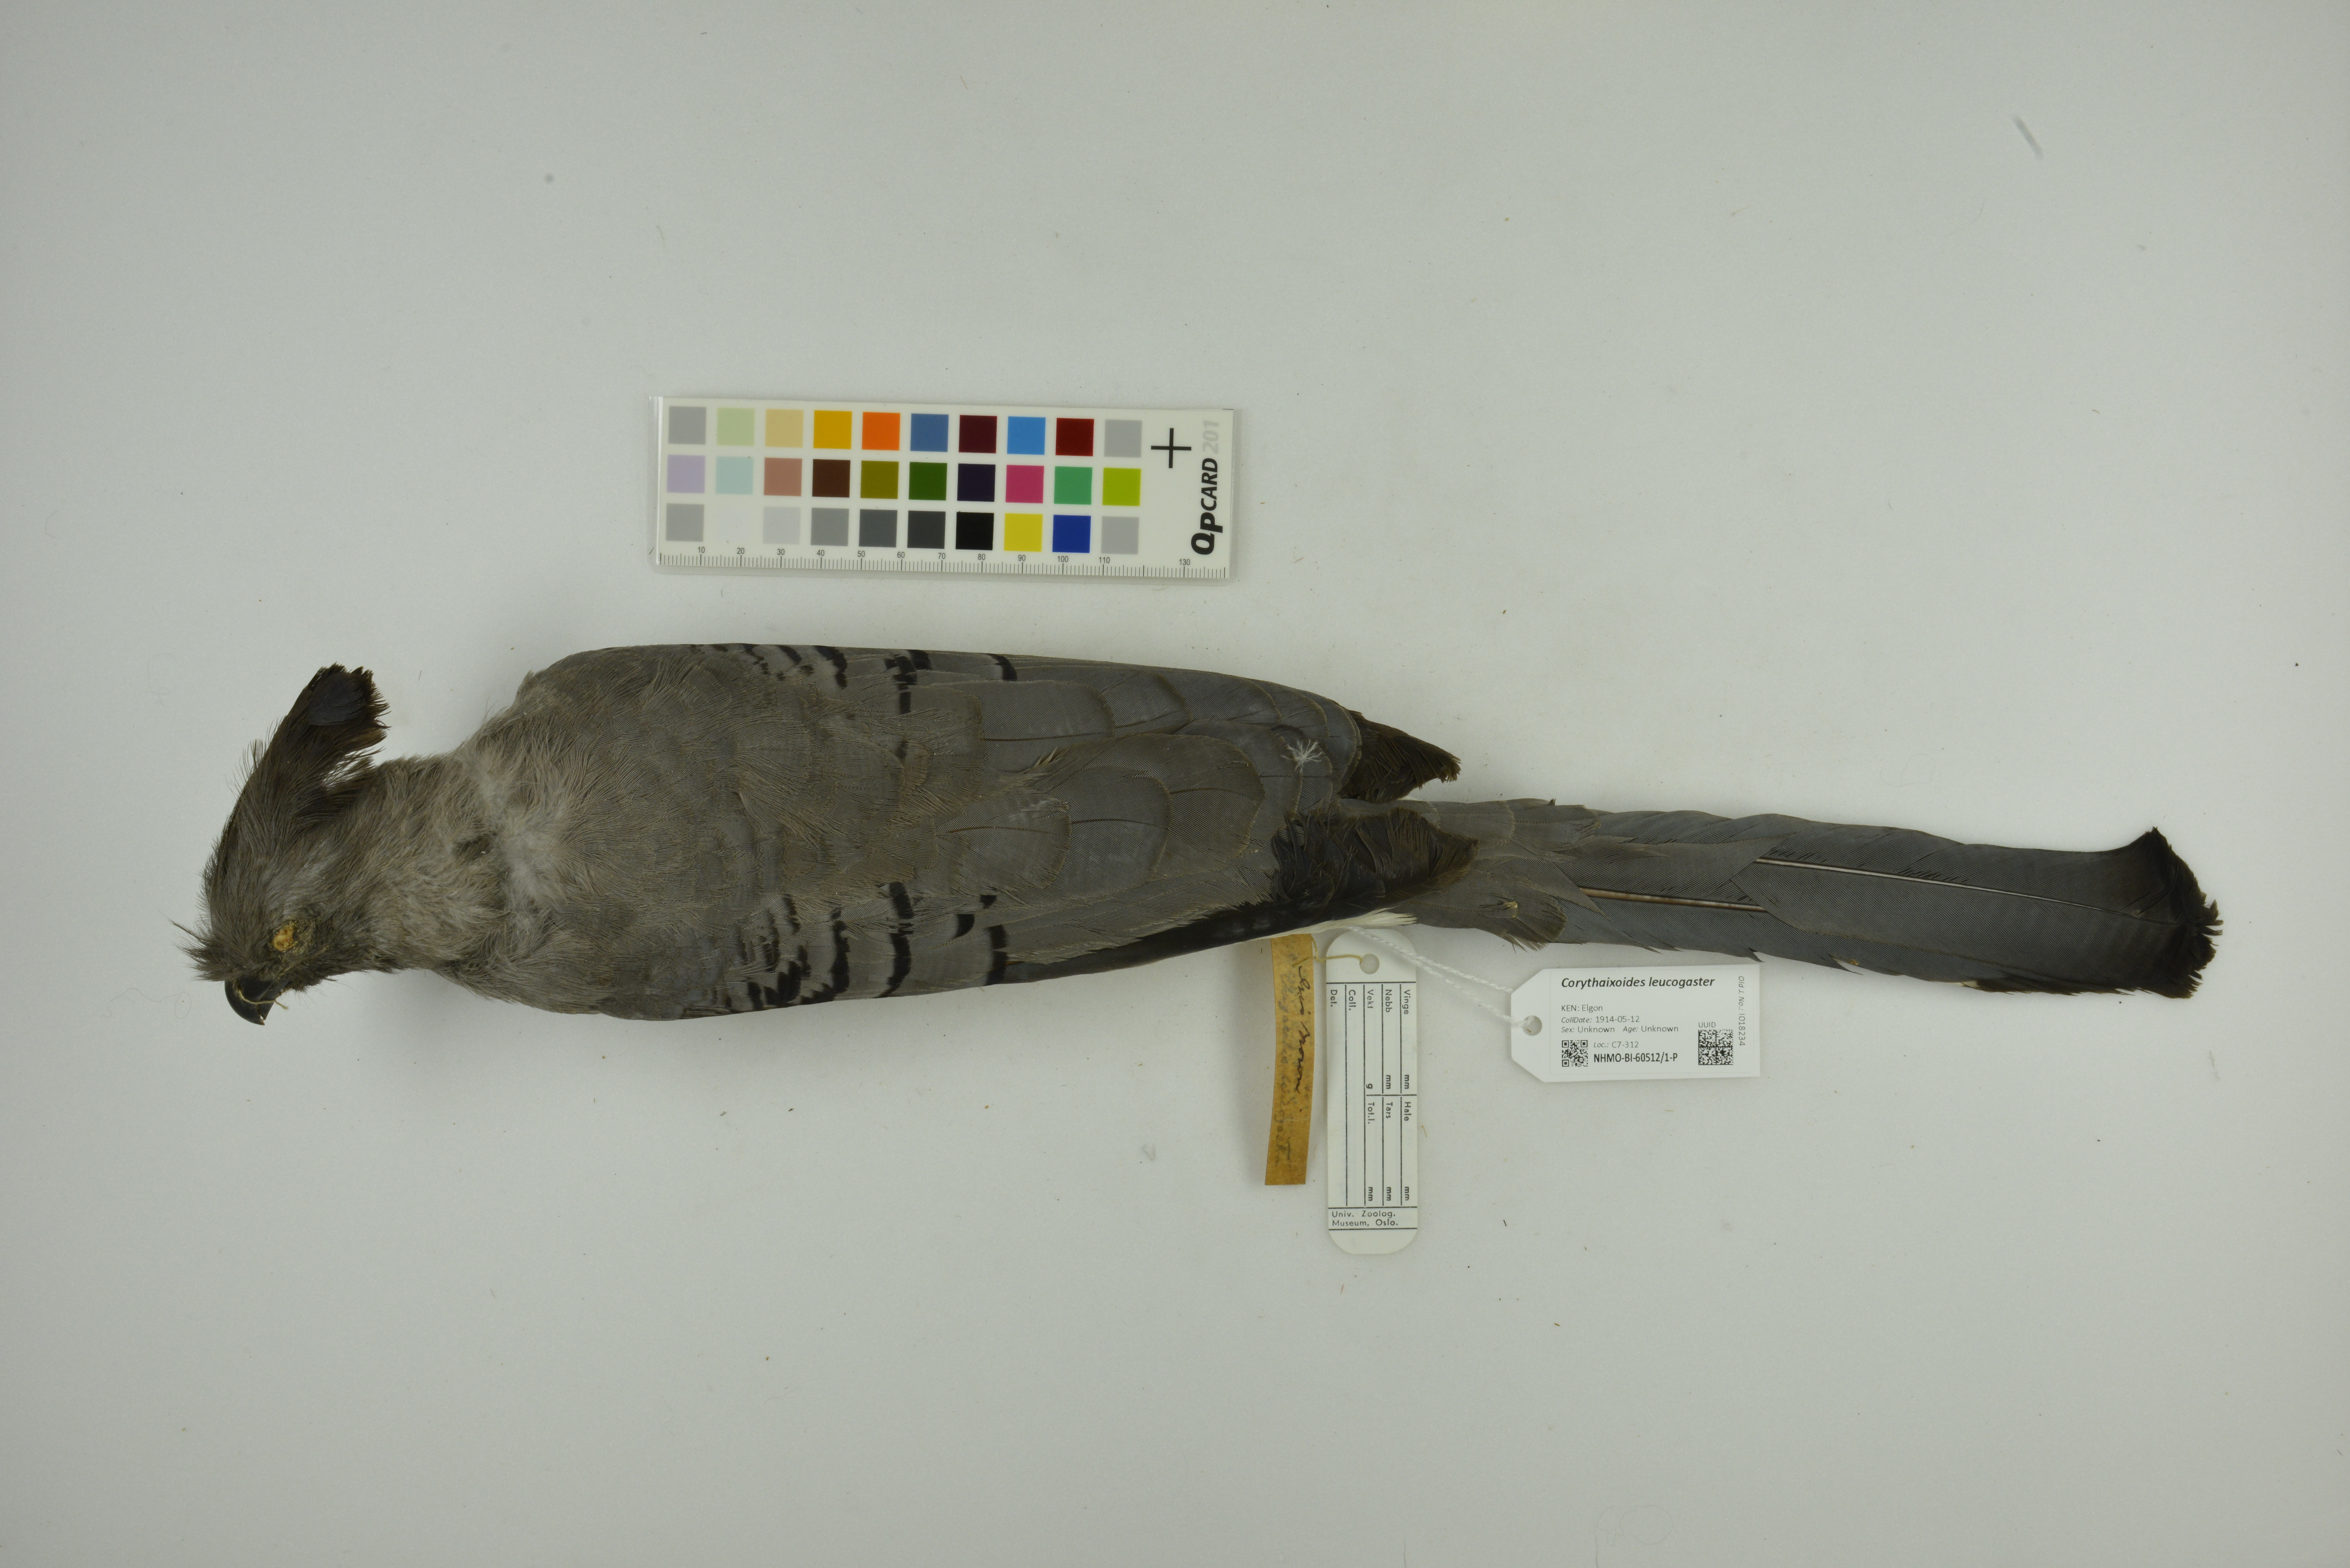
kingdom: Animalia
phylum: Chordata
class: Aves
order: Musophagiformes
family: Musophagidae
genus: Corythaixoides
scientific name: Corythaixoides leucogaster
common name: White-bellied go-away-bird
